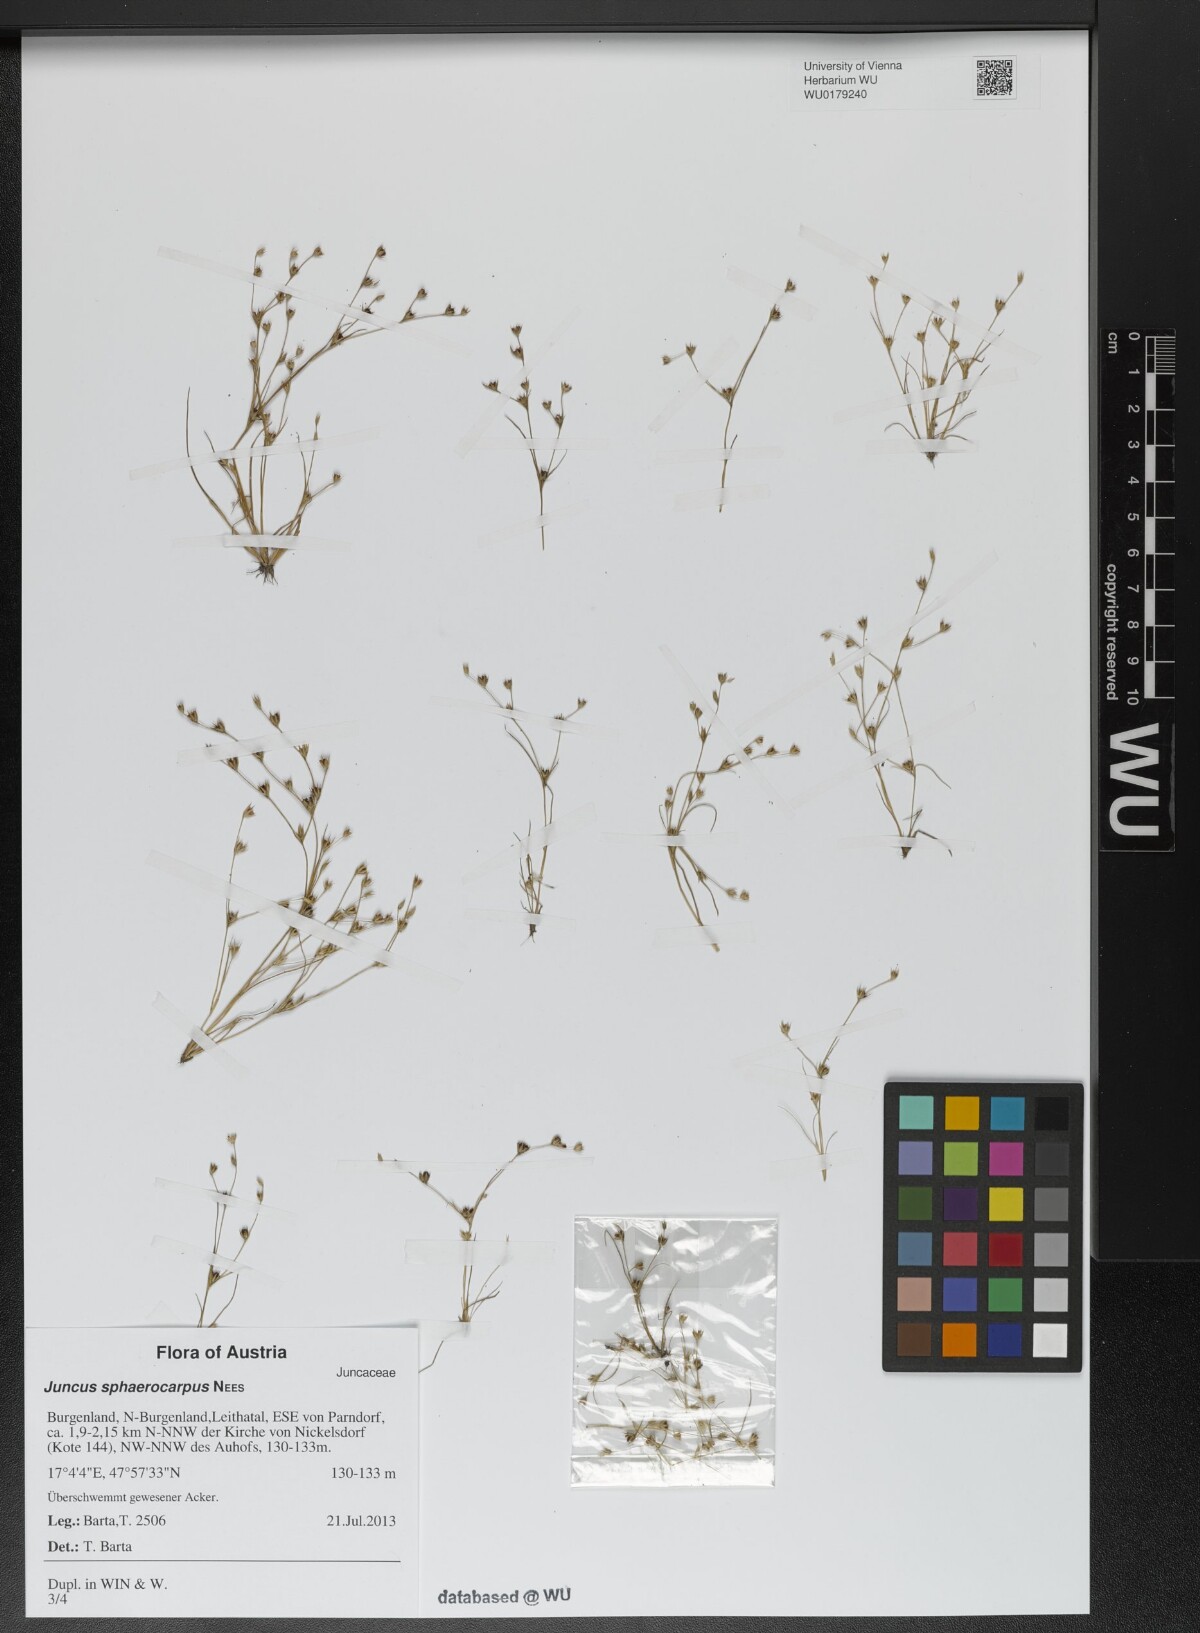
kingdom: Plantae
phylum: Tracheophyta
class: Liliopsida
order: Poales
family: Juncaceae
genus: Juncus
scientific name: Juncus sphaerocarpus
